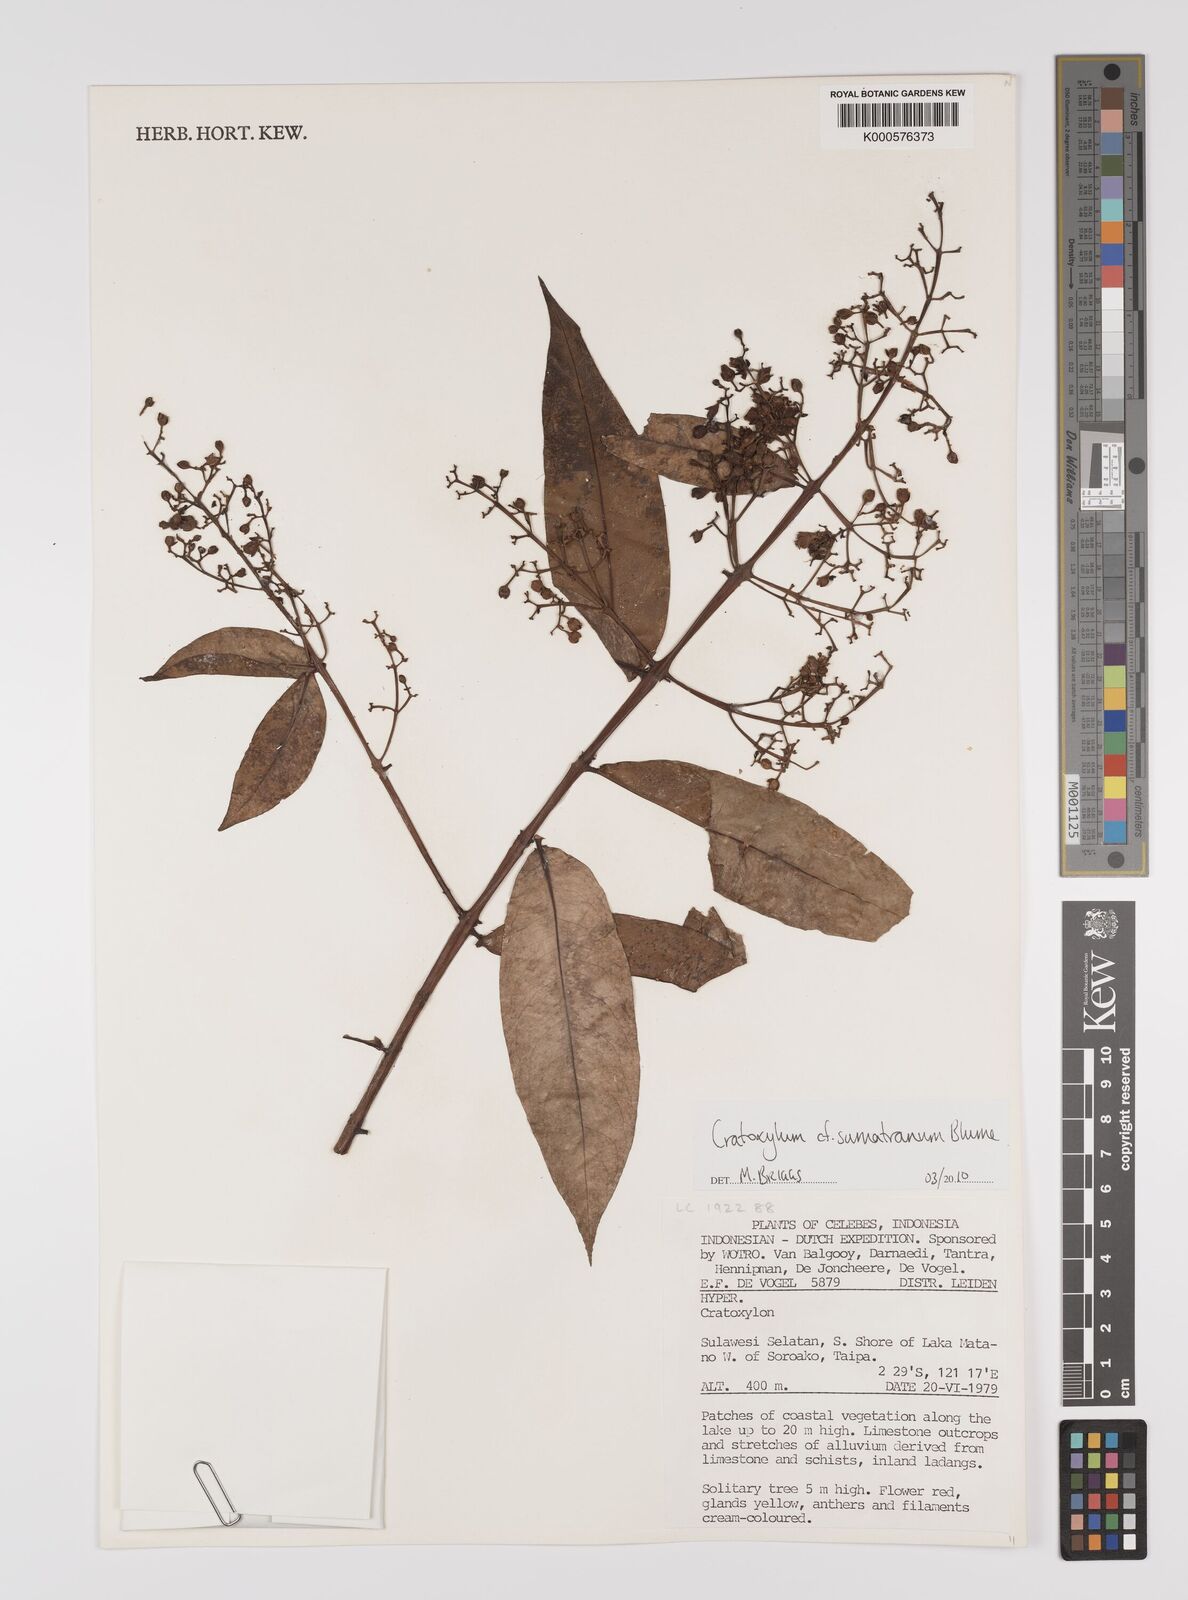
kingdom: Plantae
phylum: Tracheophyta
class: Magnoliopsida
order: Malpighiales
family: Hypericaceae
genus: Cratoxylum
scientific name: Cratoxylum sumatranum
